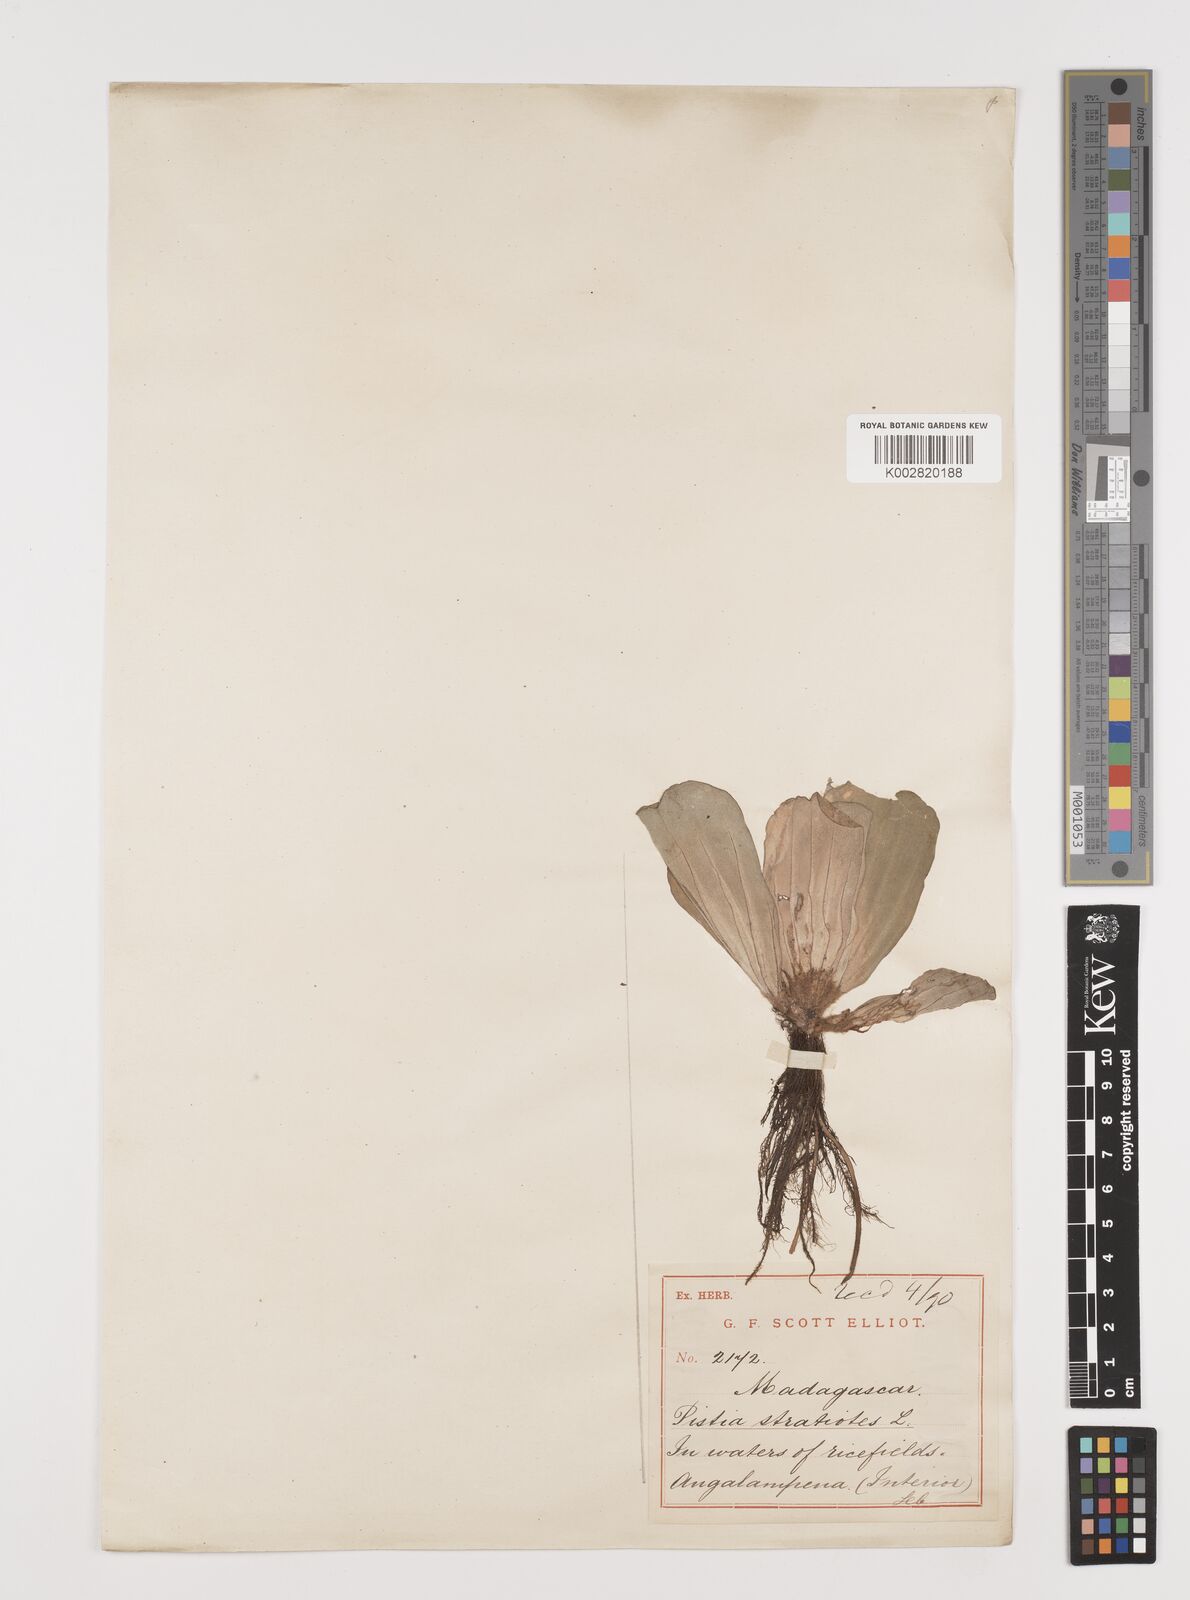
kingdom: Plantae
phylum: Tracheophyta
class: Liliopsida
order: Alismatales
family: Araceae
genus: Pistia
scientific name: Pistia stratiotes
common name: Water lettuce
